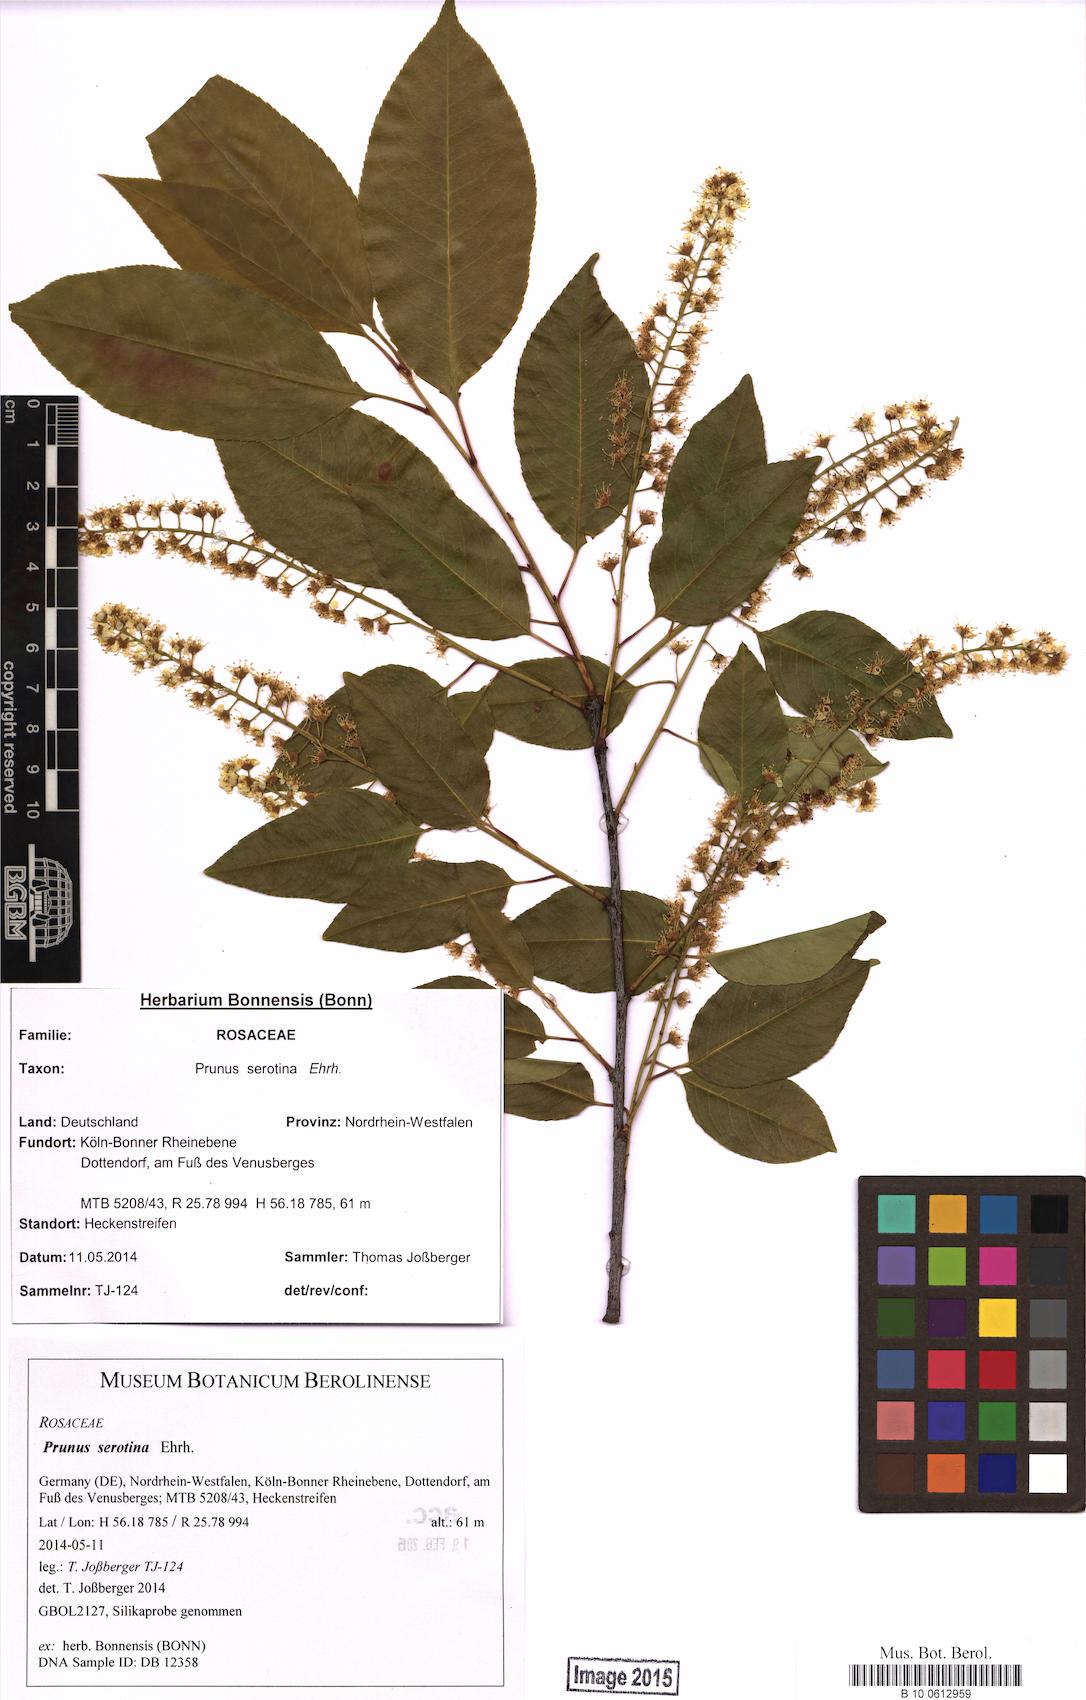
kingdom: Plantae
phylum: Tracheophyta
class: Magnoliopsida
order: Rosales
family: Rosaceae
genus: Prunus
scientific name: Prunus serotina
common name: Black cherry
